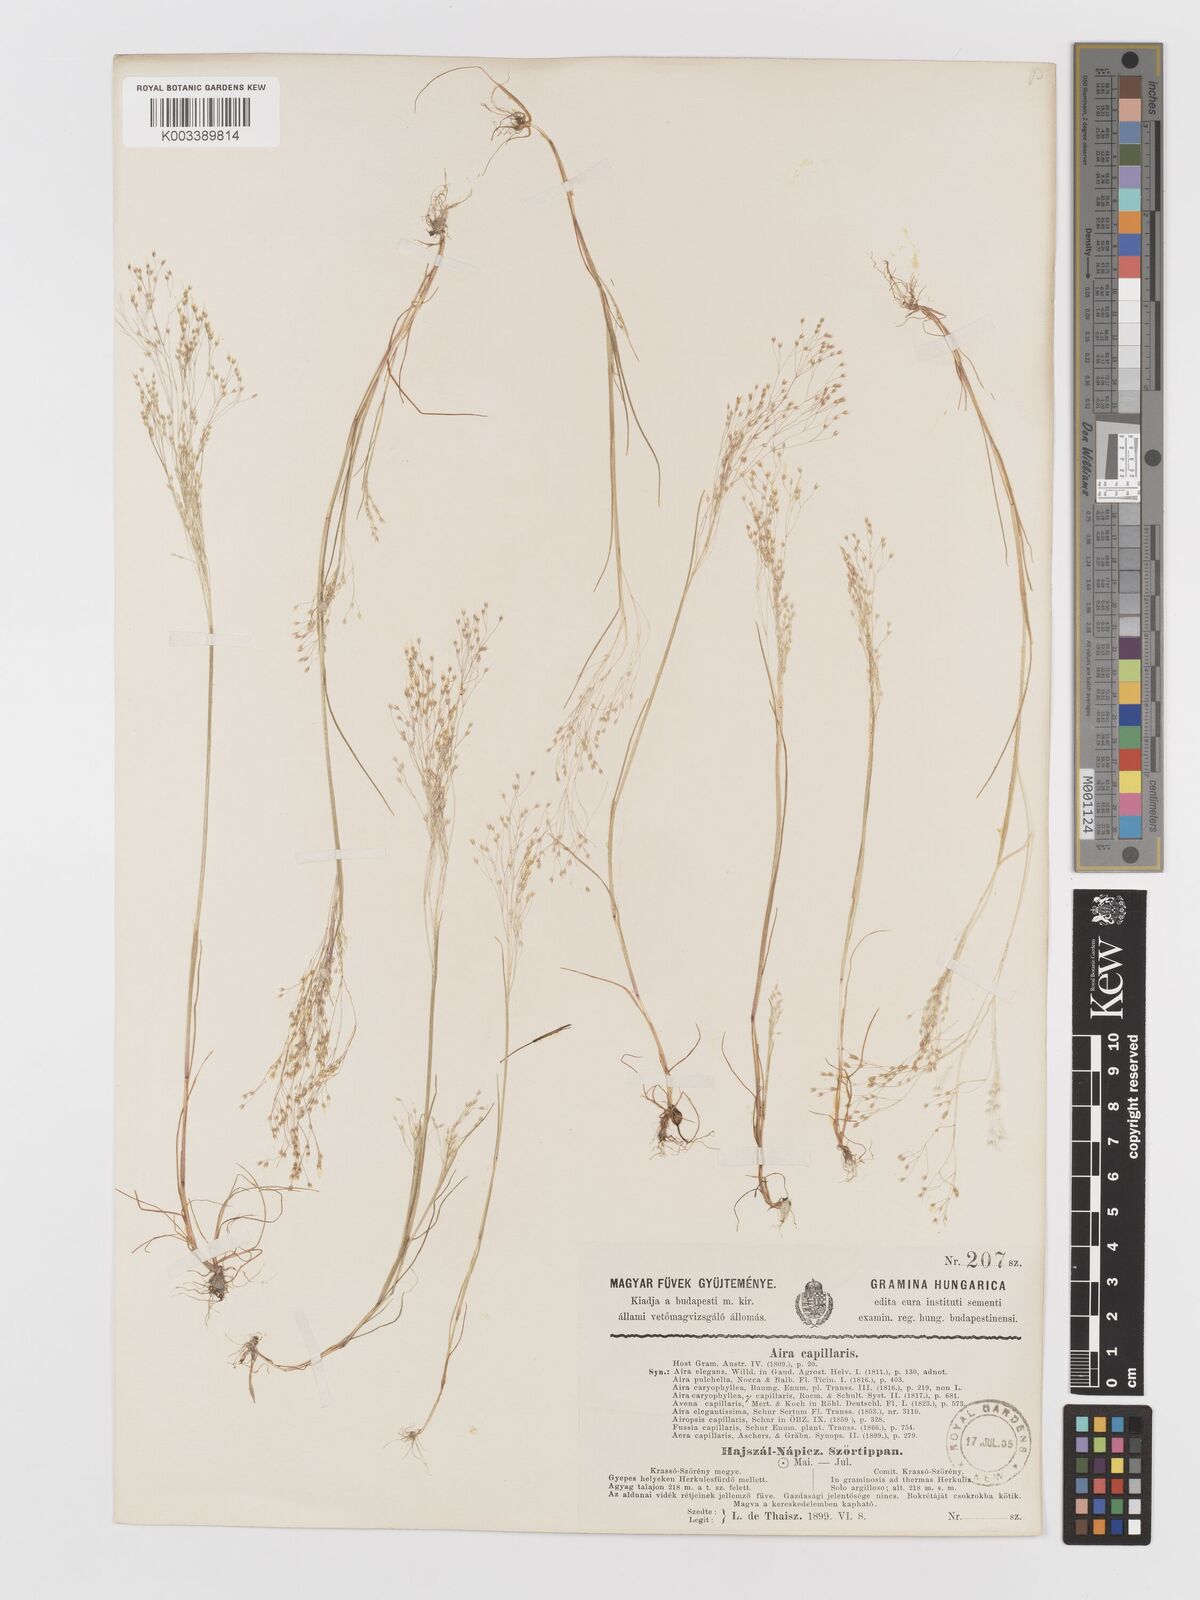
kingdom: Plantae
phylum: Tracheophyta
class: Liliopsida
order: Poales
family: Poaceae
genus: Aira
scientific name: Aira elegans
